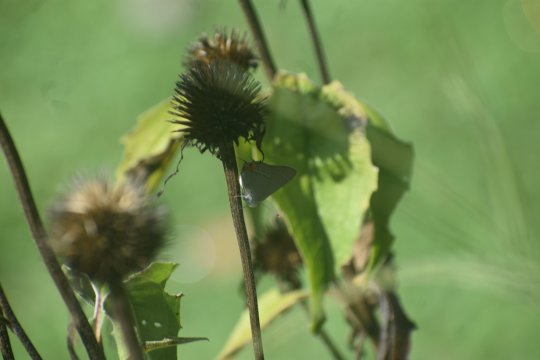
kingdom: Animalia
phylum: Arthropoda
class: Insecta
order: Lepidoptera
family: Lycaenidae
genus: Strymon
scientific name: Strymon melinus
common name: Gray Hairstreak
